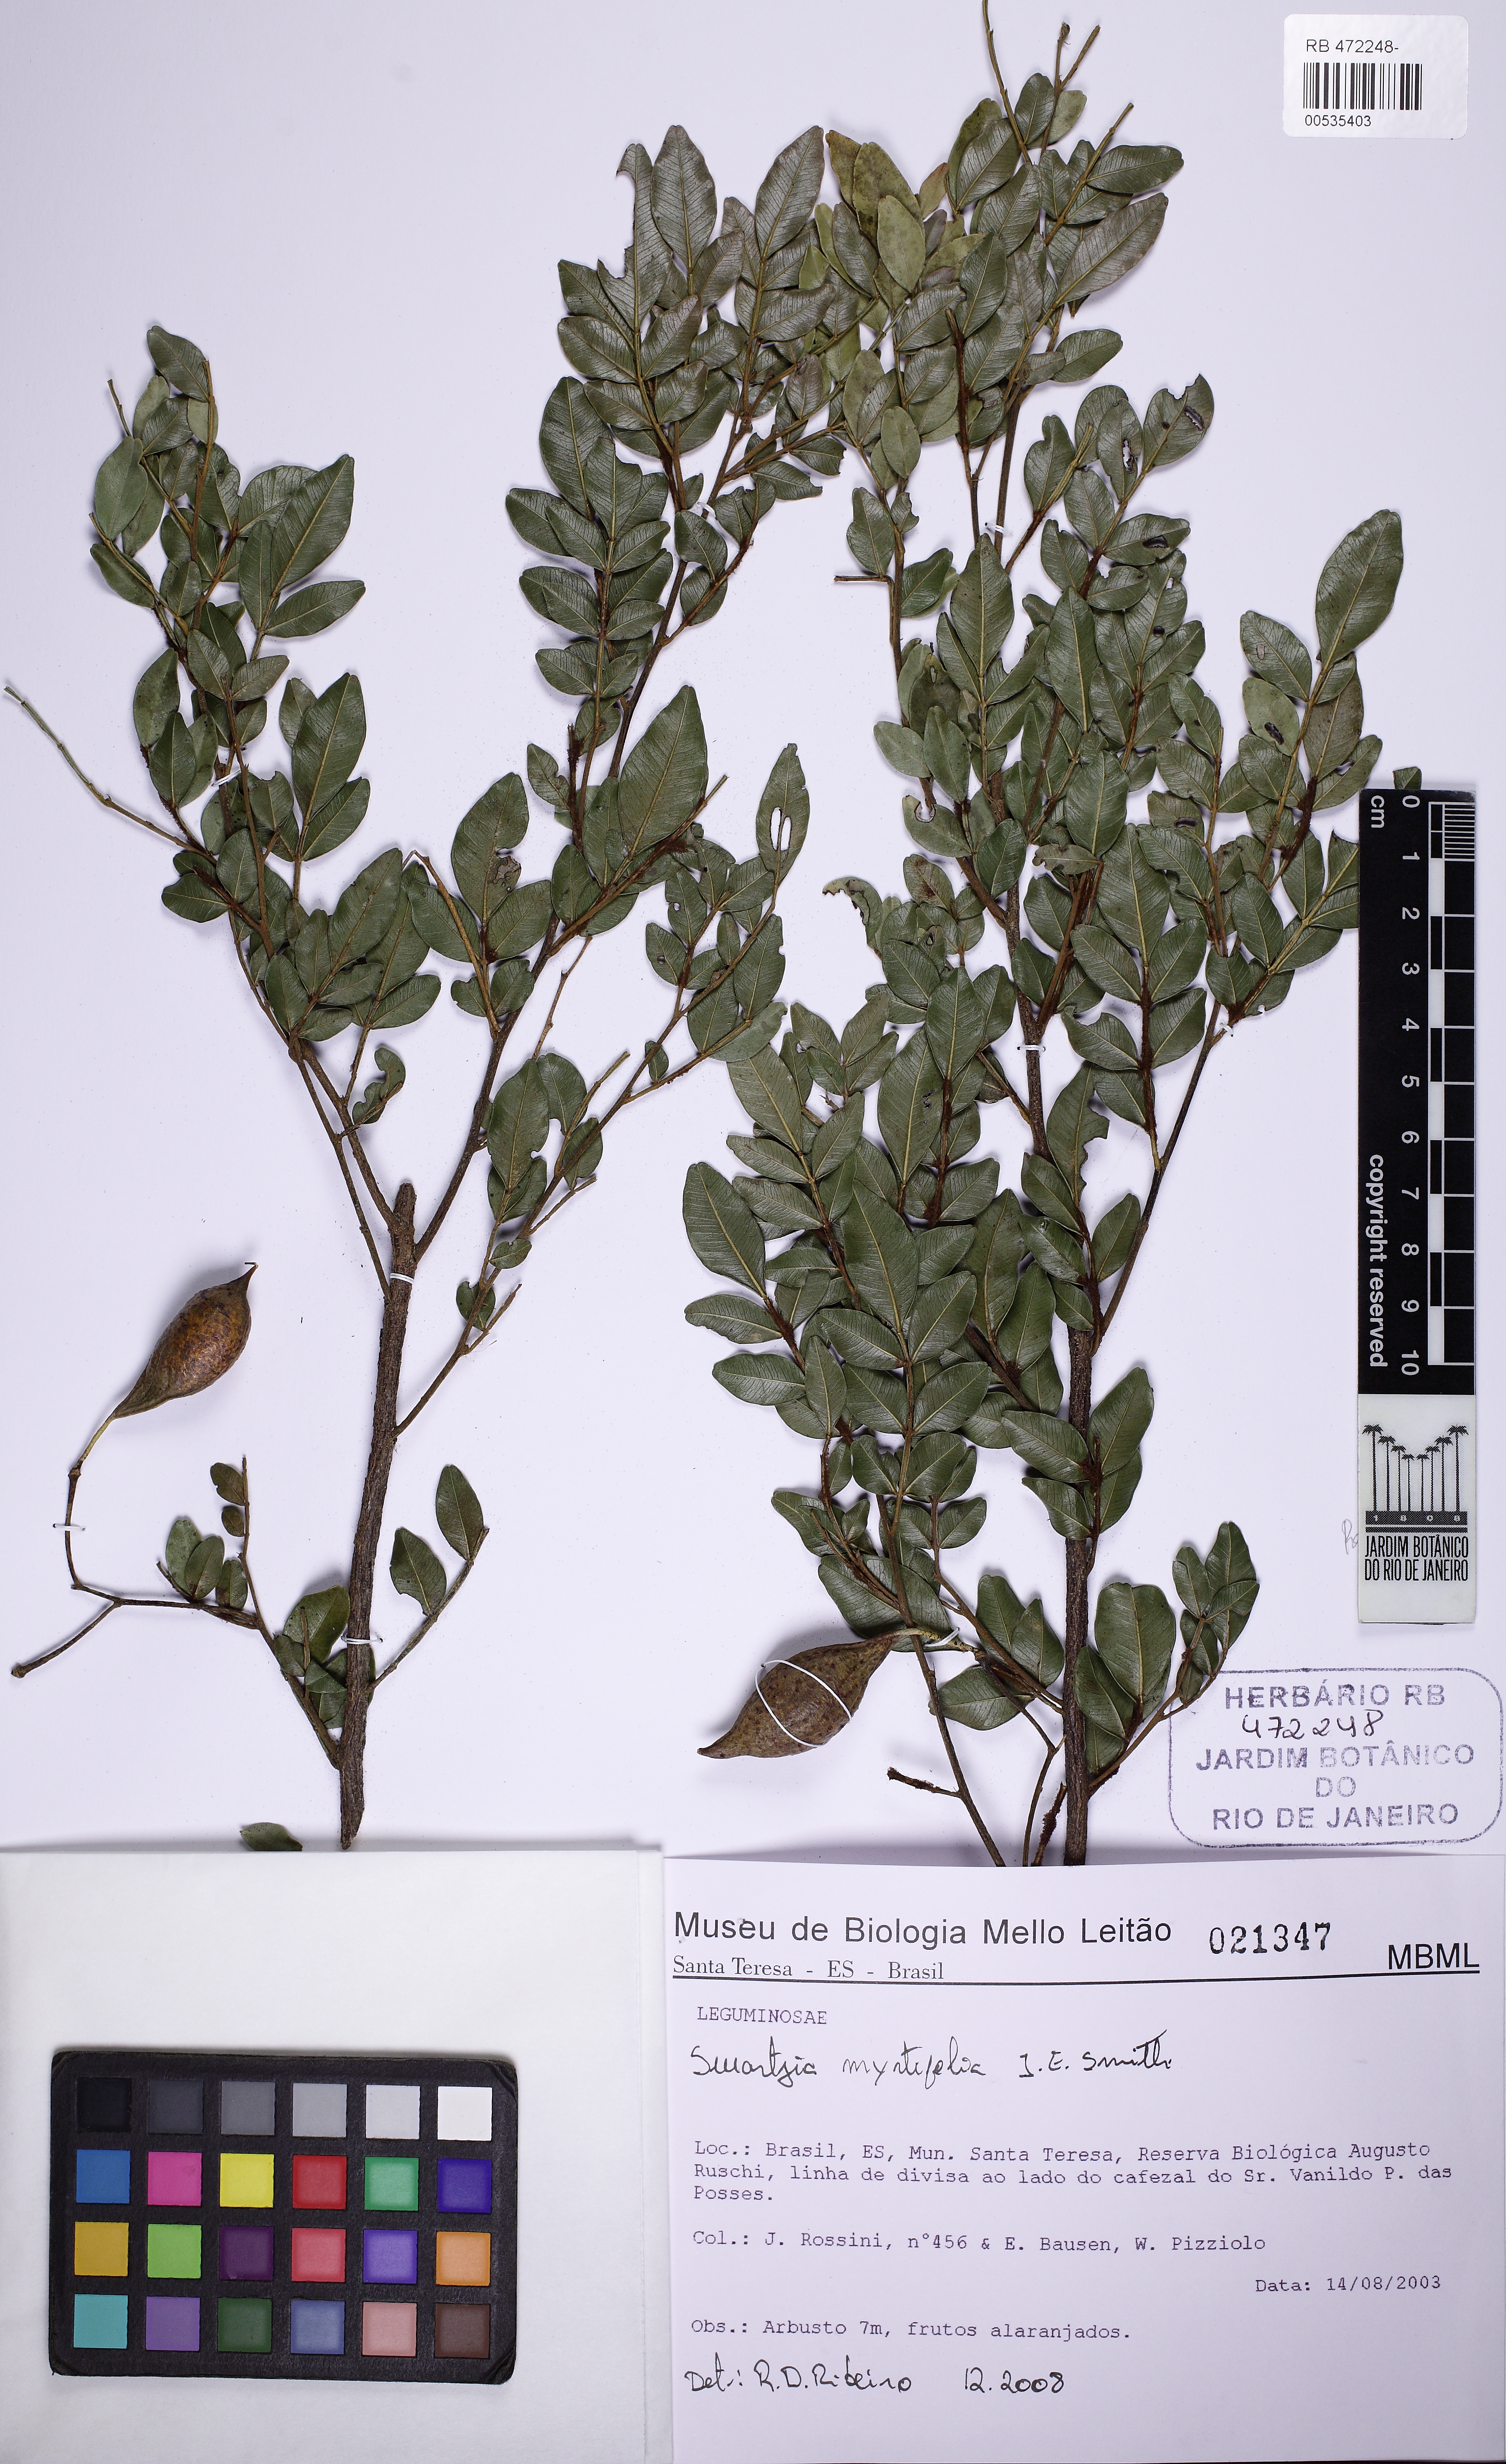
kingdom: Plantae
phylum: Tracheophyta
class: Magnoliopsida
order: Fabales
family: Fabaceae
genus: Swartzia
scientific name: Swartzia myrtifolia
